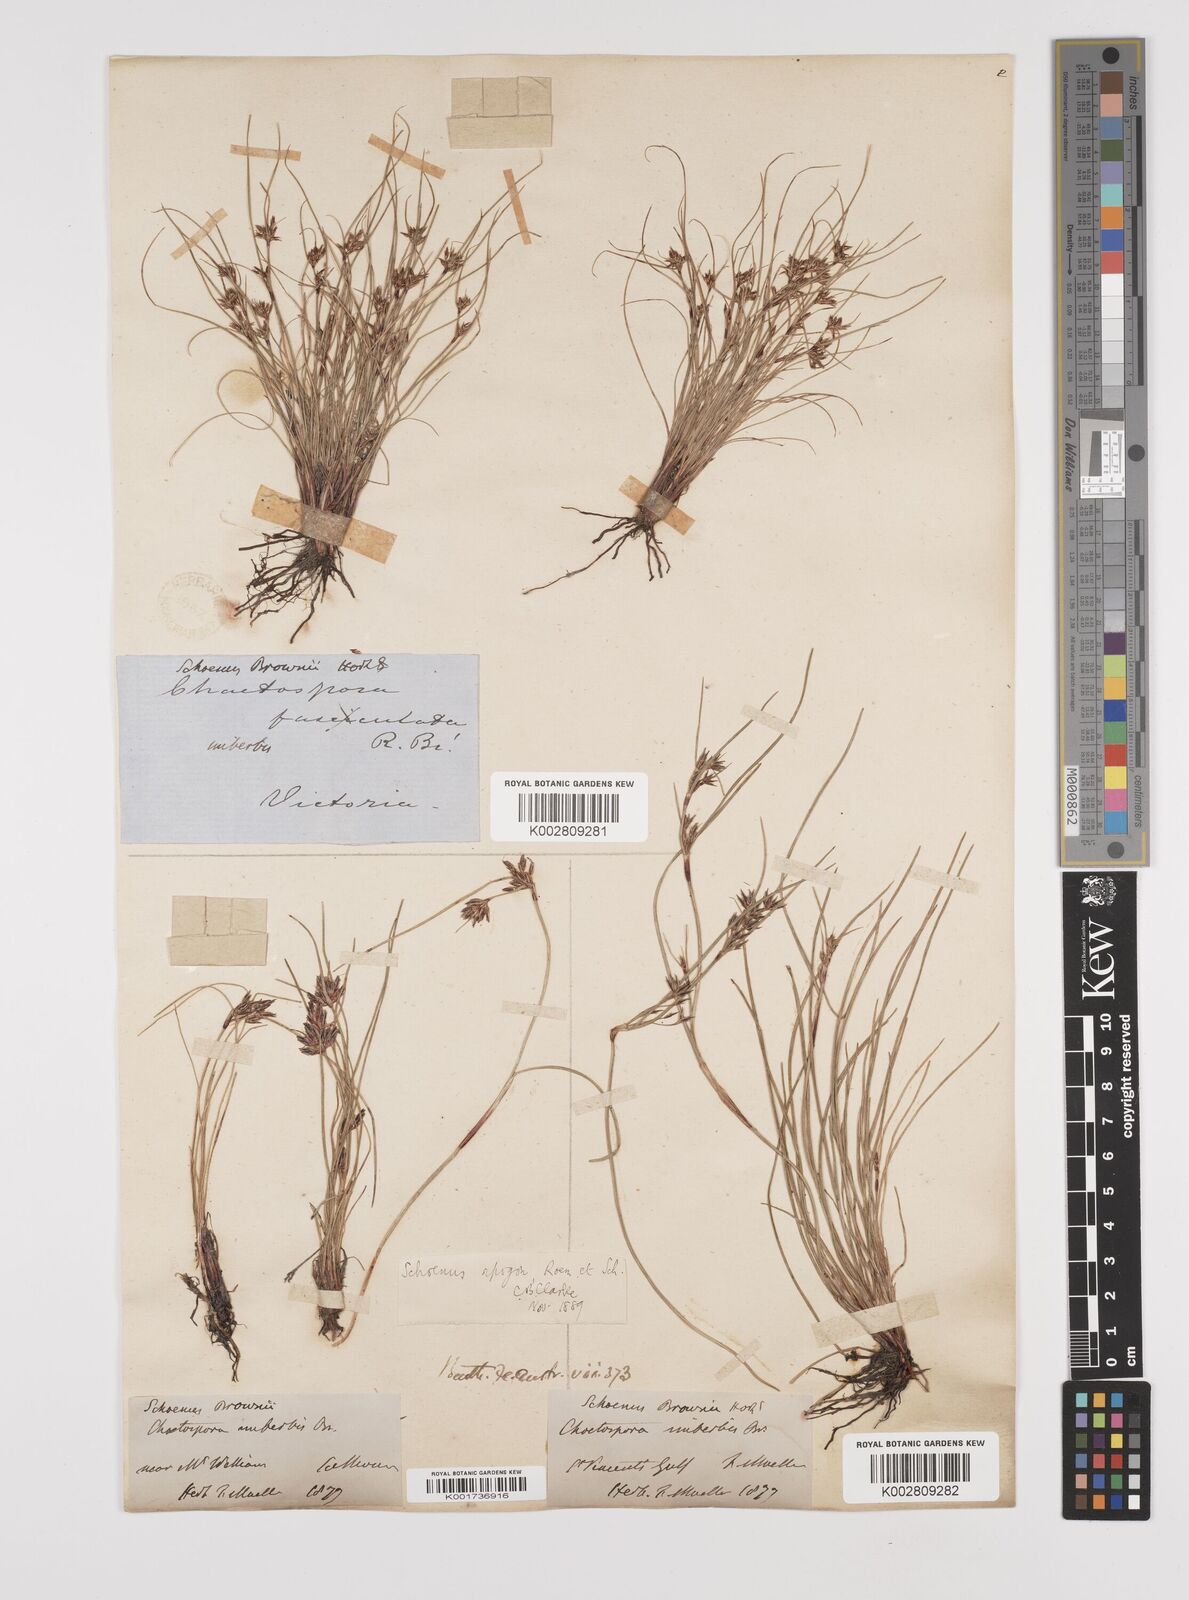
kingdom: Plantae
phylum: Tracheophyta
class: Liliopsida
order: Poales
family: Cyperaceae
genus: Schoenus
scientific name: Schoenus apogon
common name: Smooth bogrush
